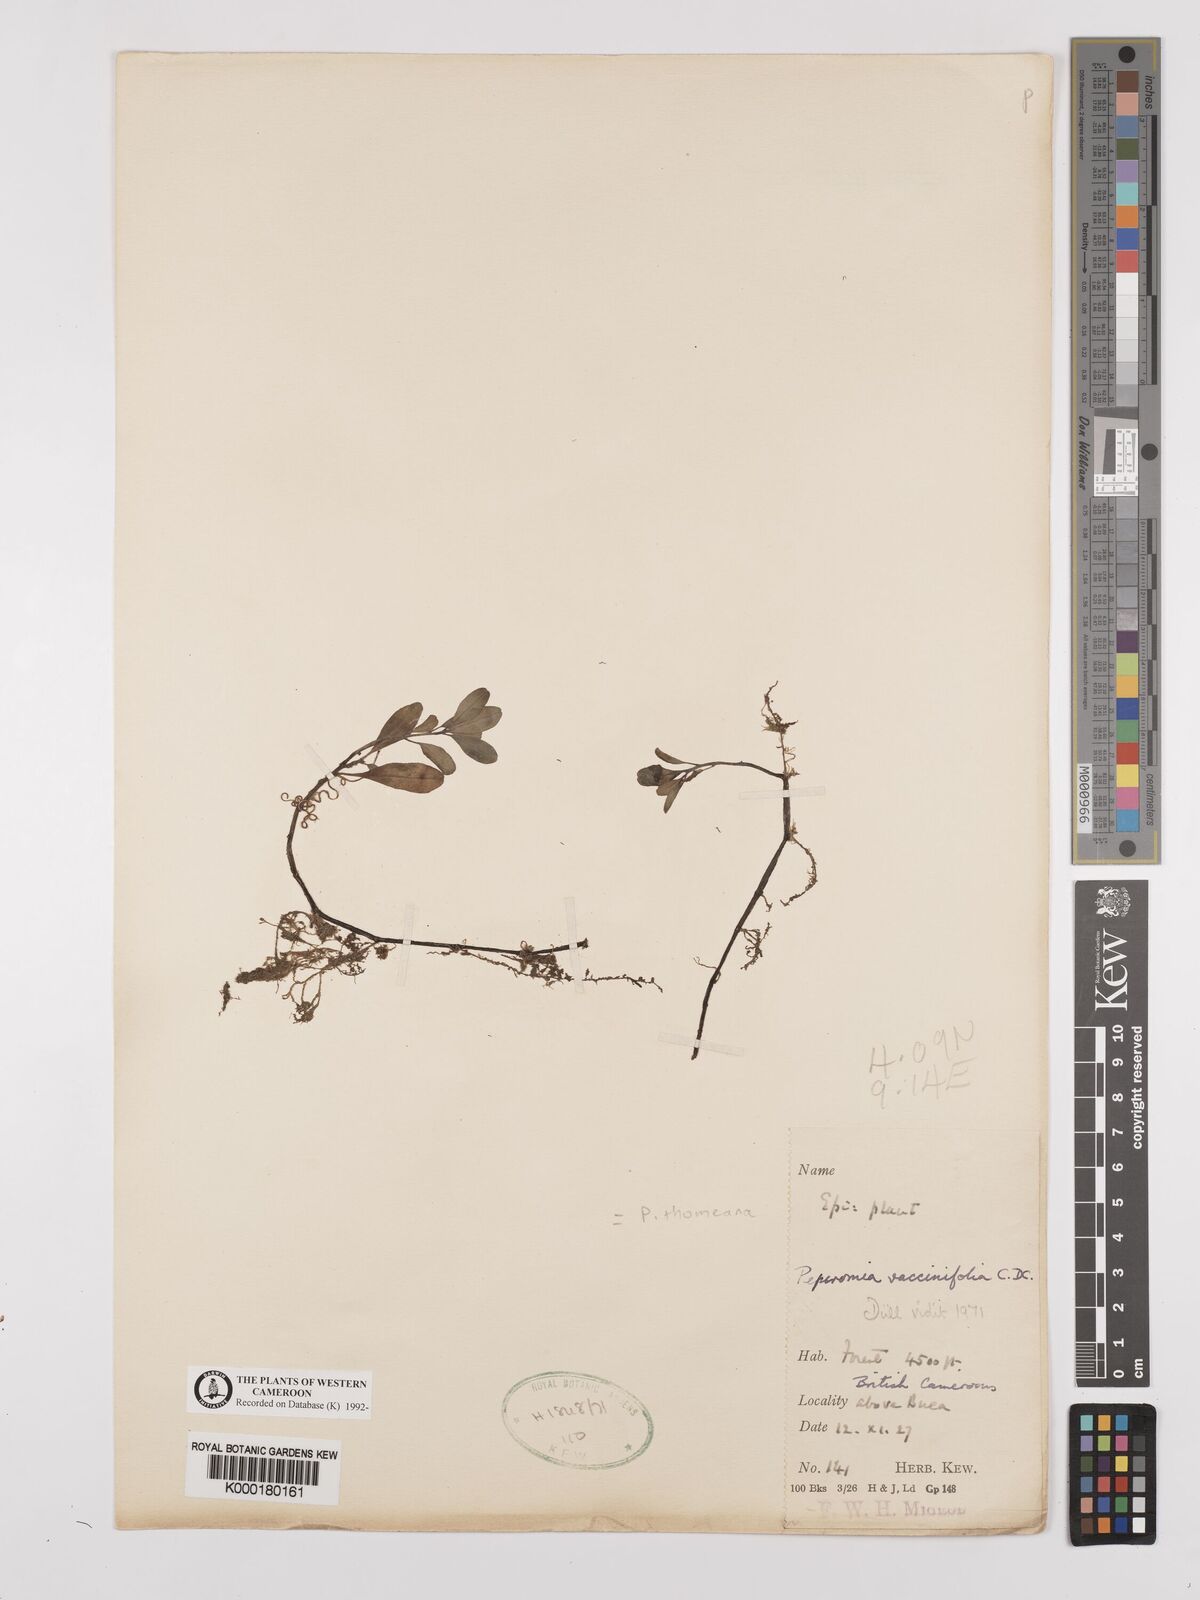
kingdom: Plantae
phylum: Tracheophyta
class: Magnoliopsida
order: Piperales
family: Piperaceae
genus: Peperomia
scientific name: Peperomia thomeana
